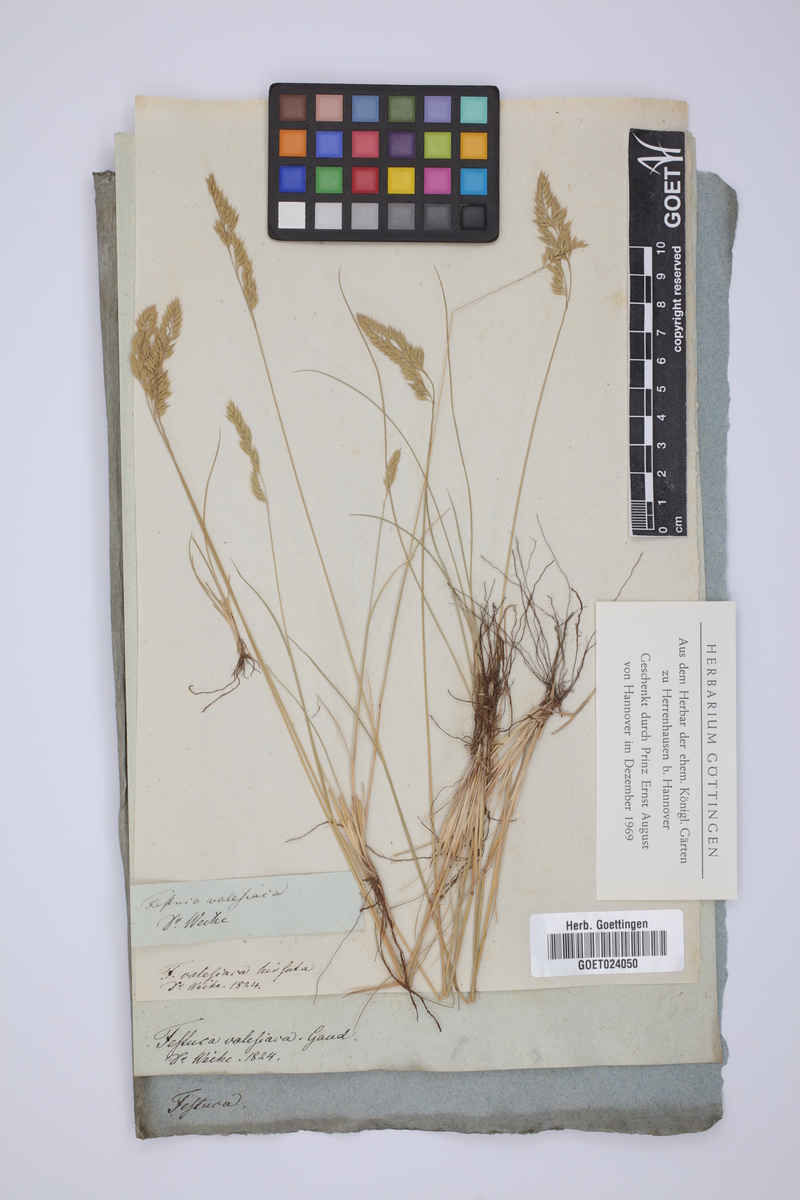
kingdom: Plantae
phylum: Tracheophyta
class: Liliopsida
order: Poales
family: Poaceae
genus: Festuca
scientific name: Festuca valesiaca
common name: Volga fescue
